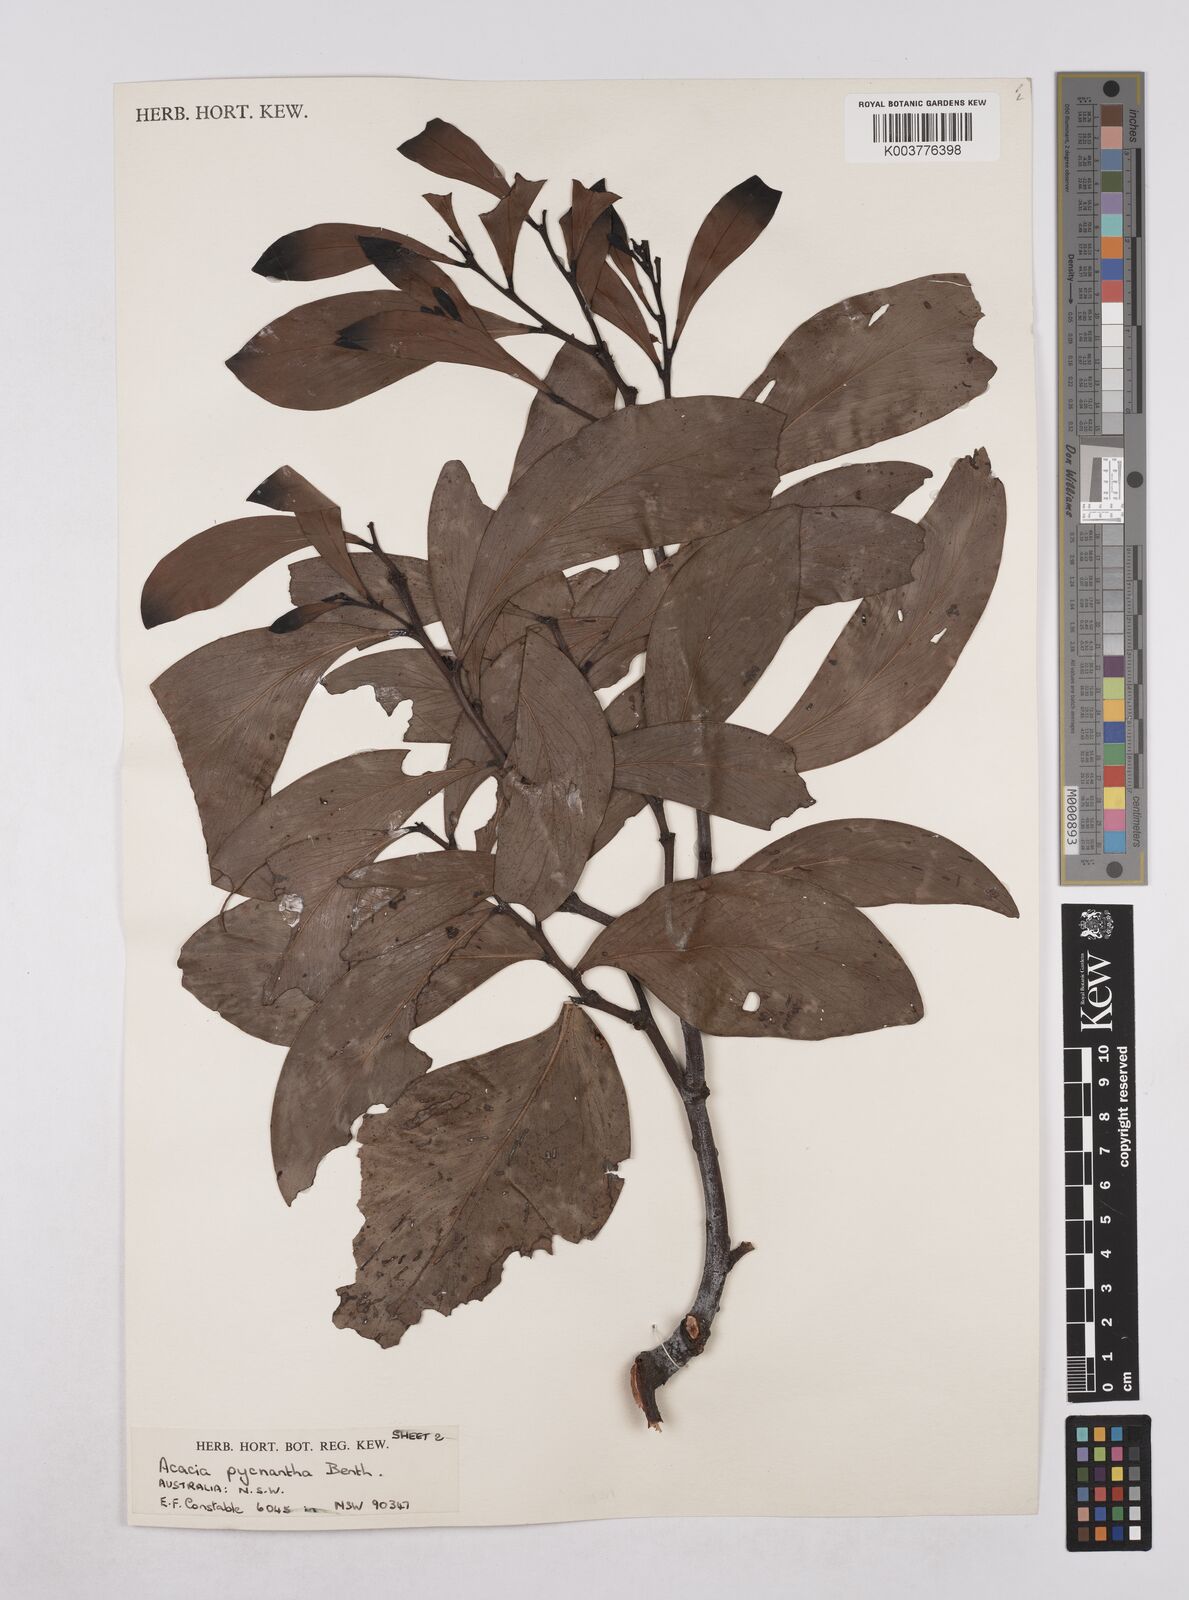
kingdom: Plantae
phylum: Tracheophyta
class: Magnoliopsida
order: Fabales
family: Fabaceae
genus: Acacia
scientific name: Acacia pycnantha
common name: Golden wattle
